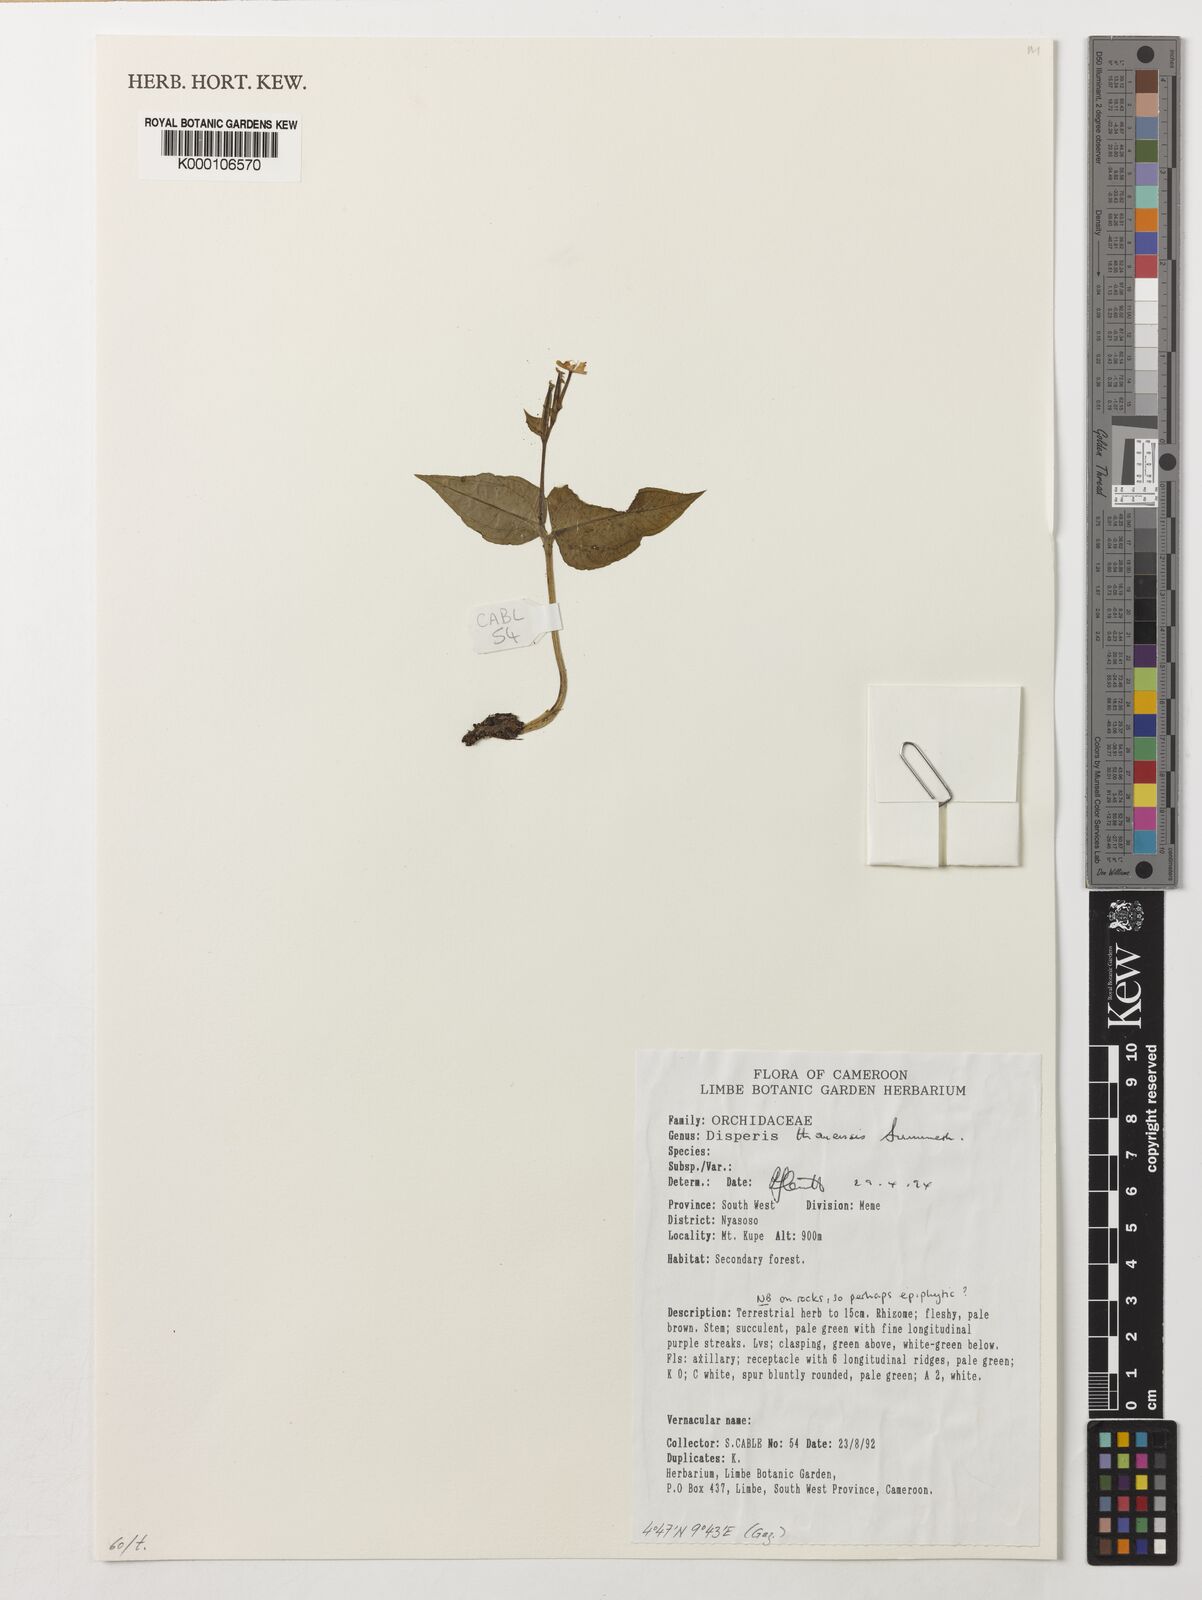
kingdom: Plantae
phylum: Tracheophyta
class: Liliopsida
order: Asparagales
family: Orchidaceae
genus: Disperis
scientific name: Disperis thomensis
